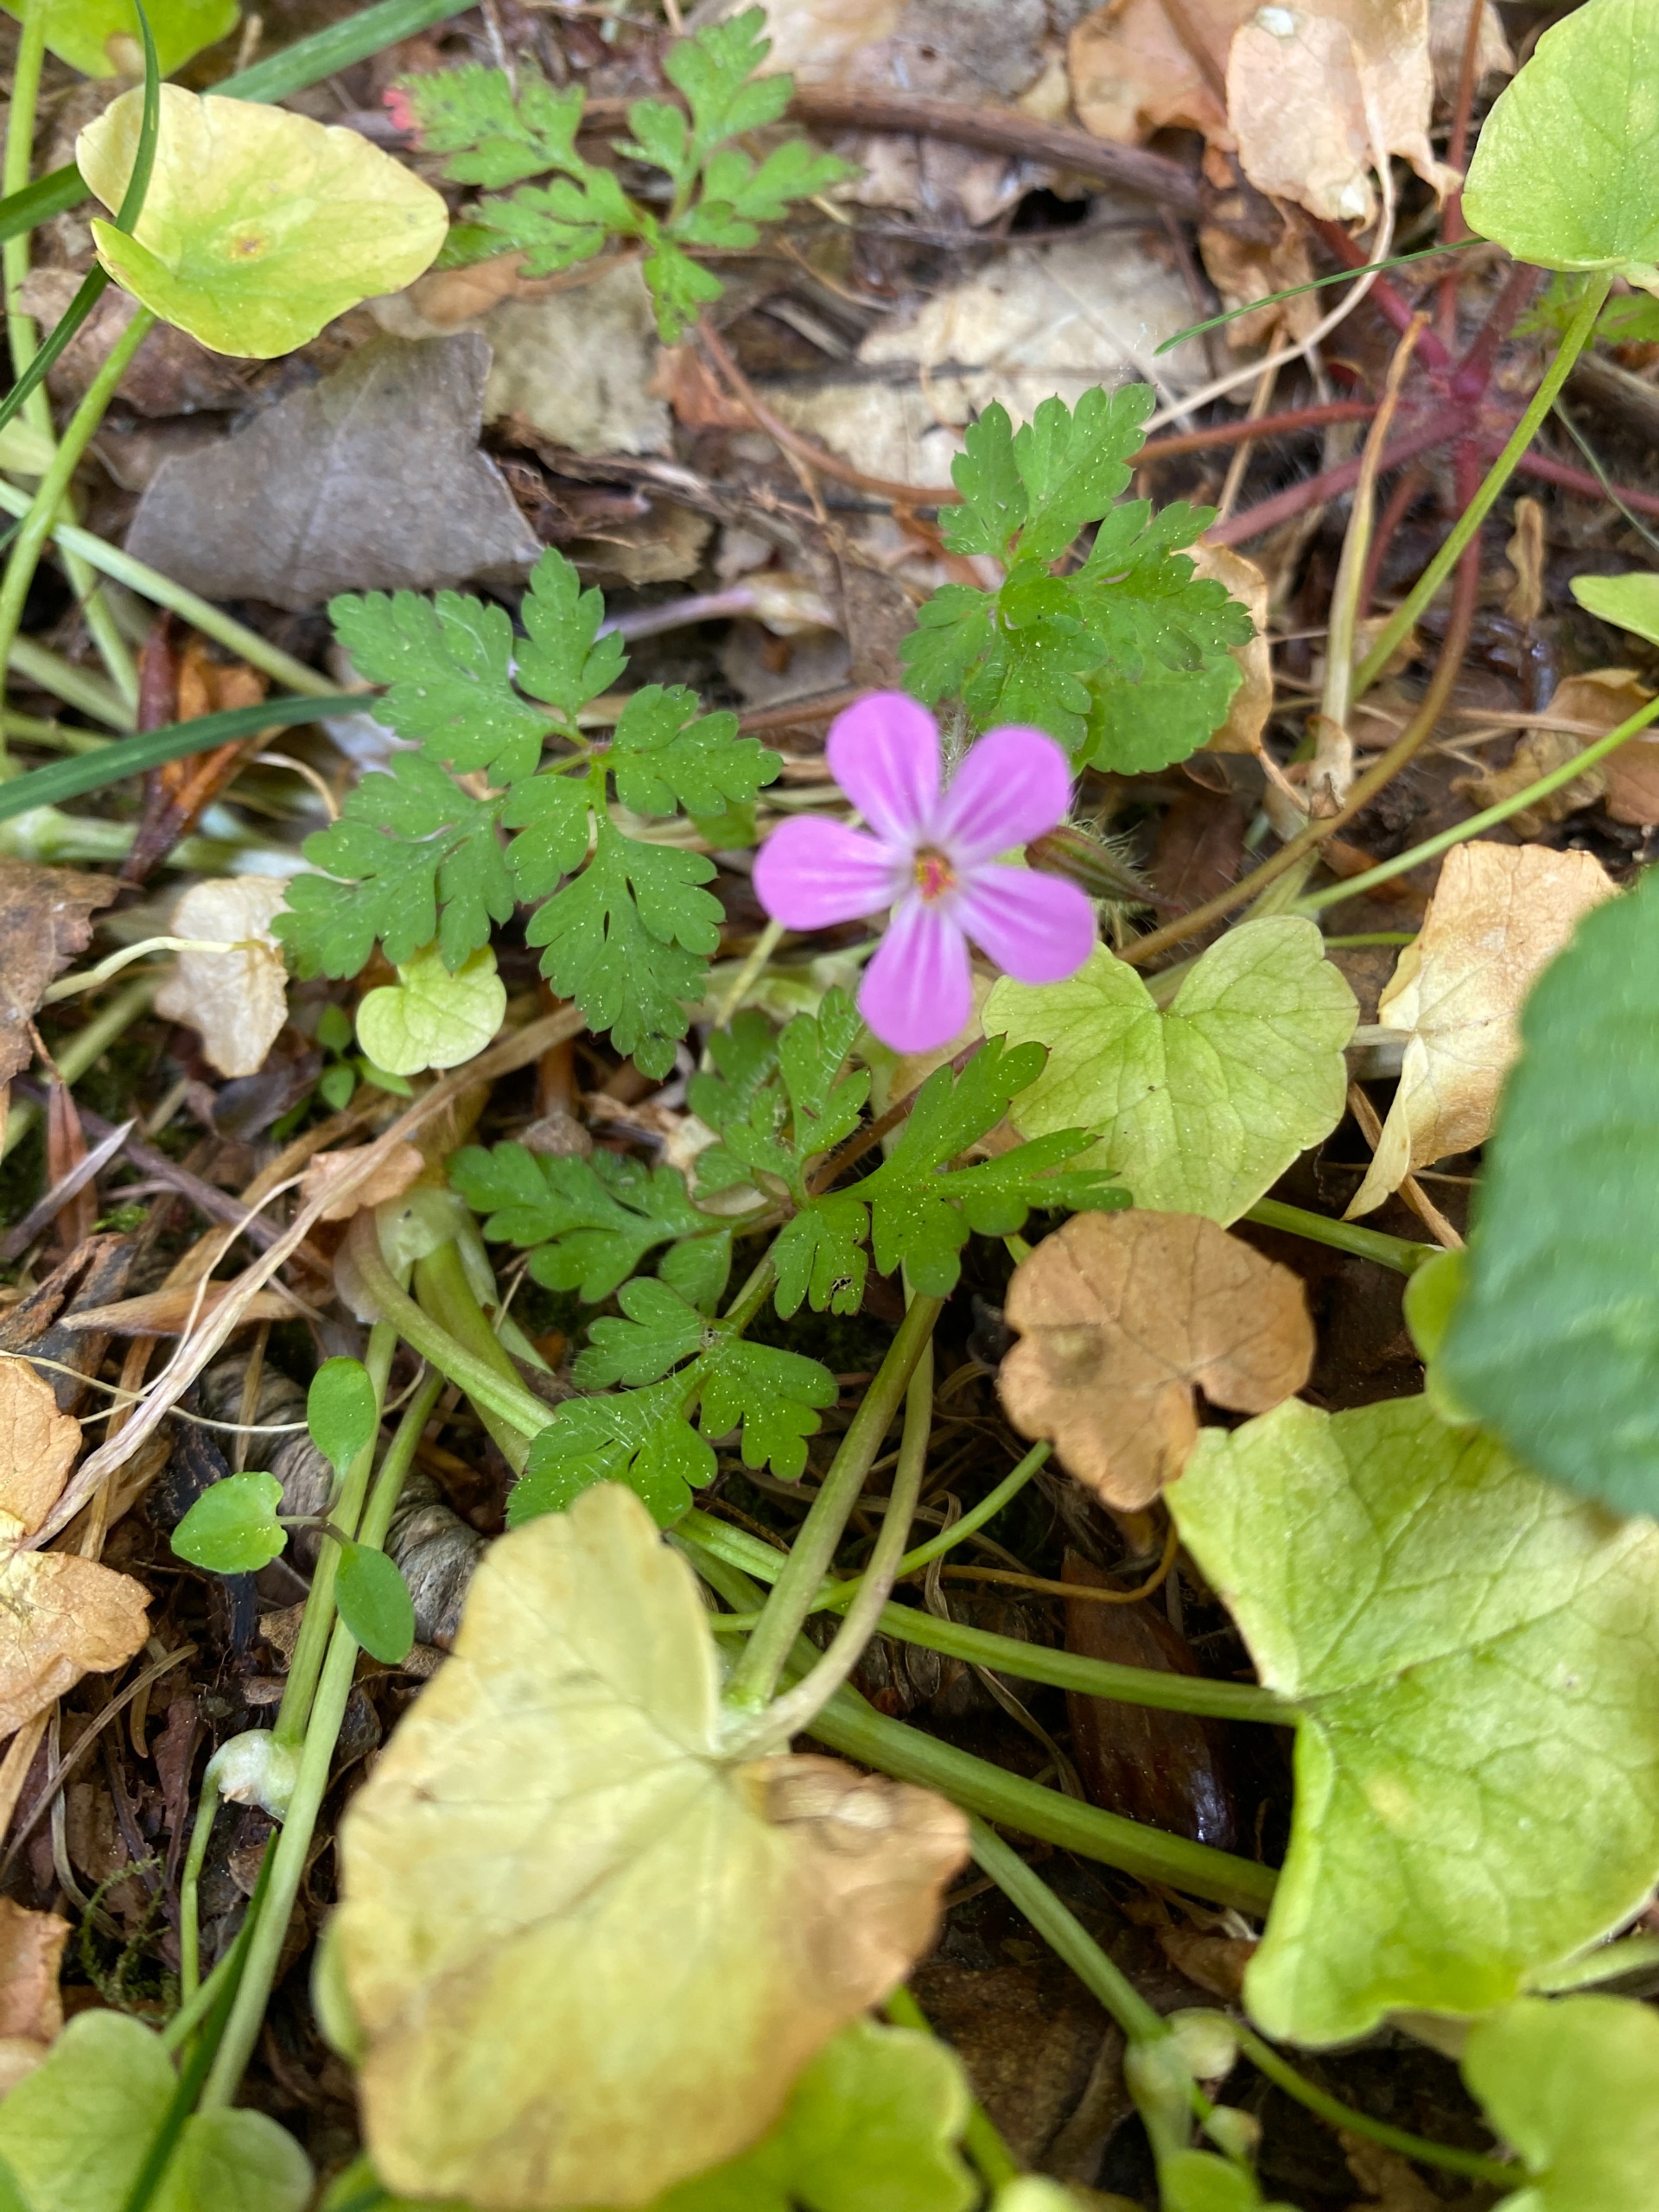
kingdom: Plantae
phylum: Tracheophyta
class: Magnoliopsida
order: Geraniales
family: Geraniaceae
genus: Geranium
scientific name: Geranium robertianum
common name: Stinkende storkenæb
